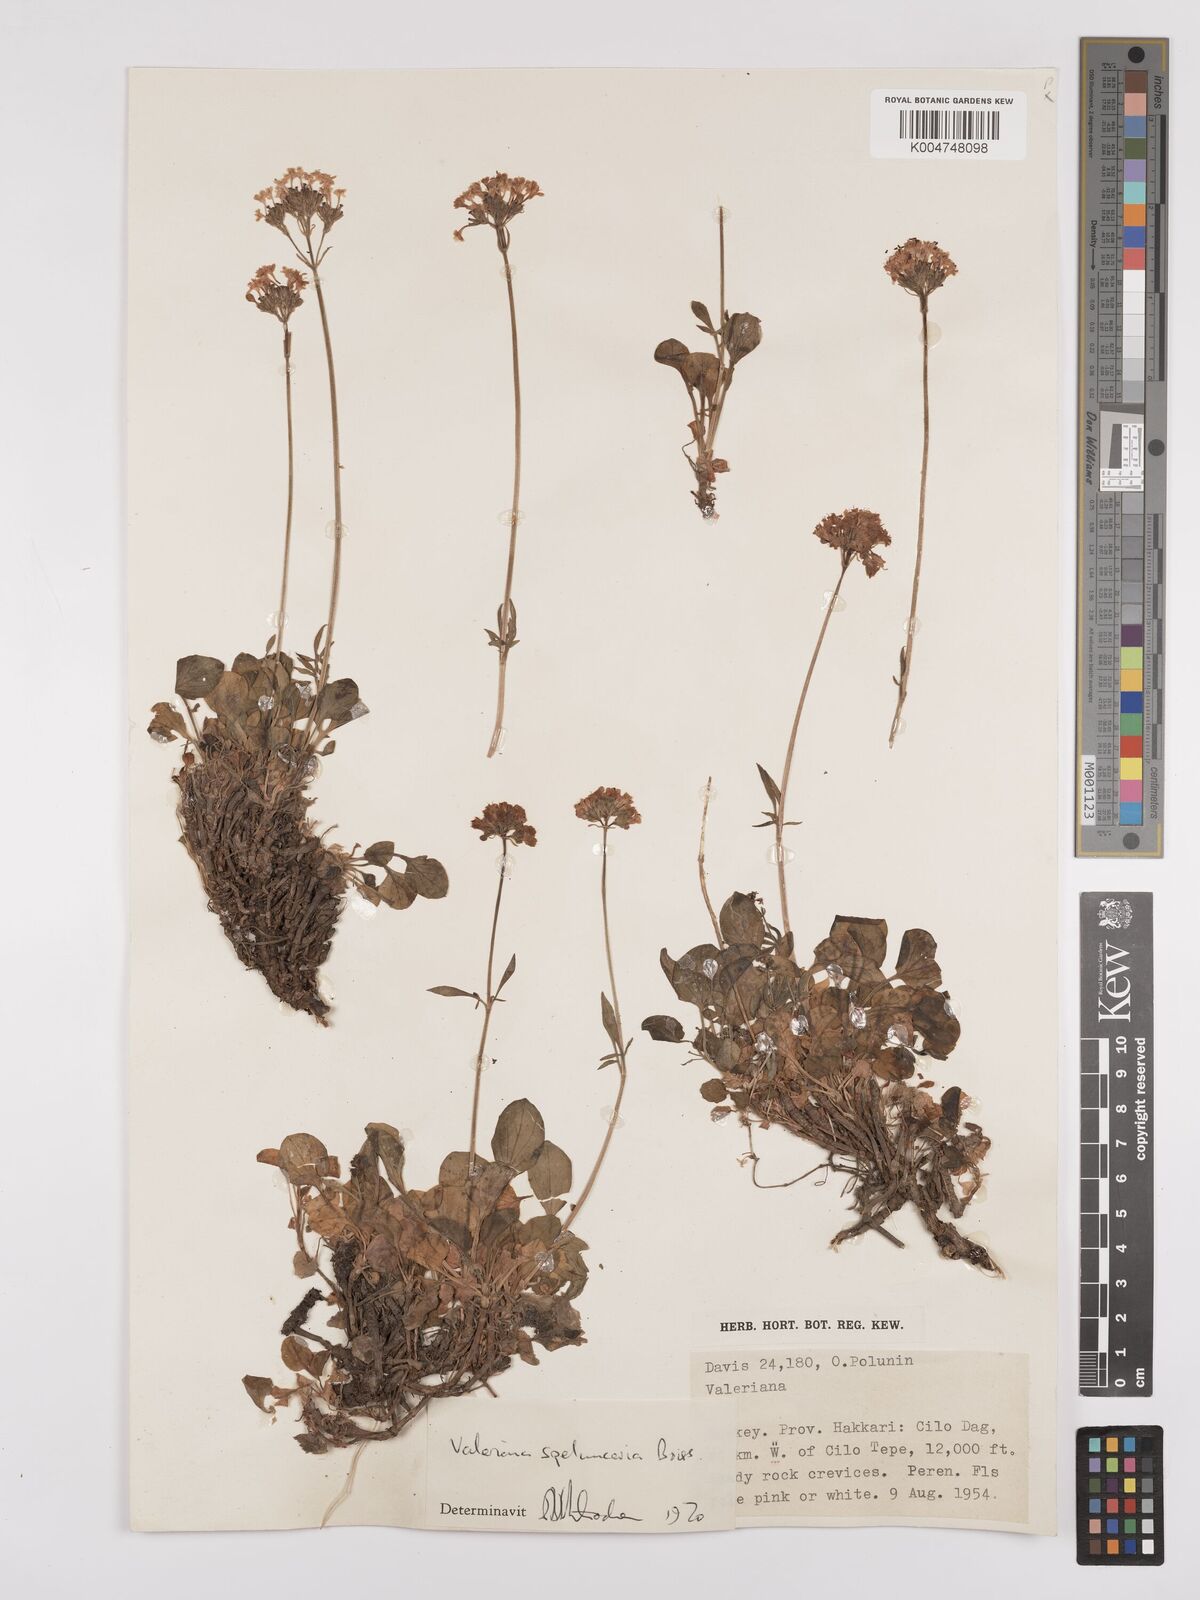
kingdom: Plantae
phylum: Tracheophyta
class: Magnoliopsida
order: Dipsacales
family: Caprifoliaceae
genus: Valeriana
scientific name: Valeriana petrophila
